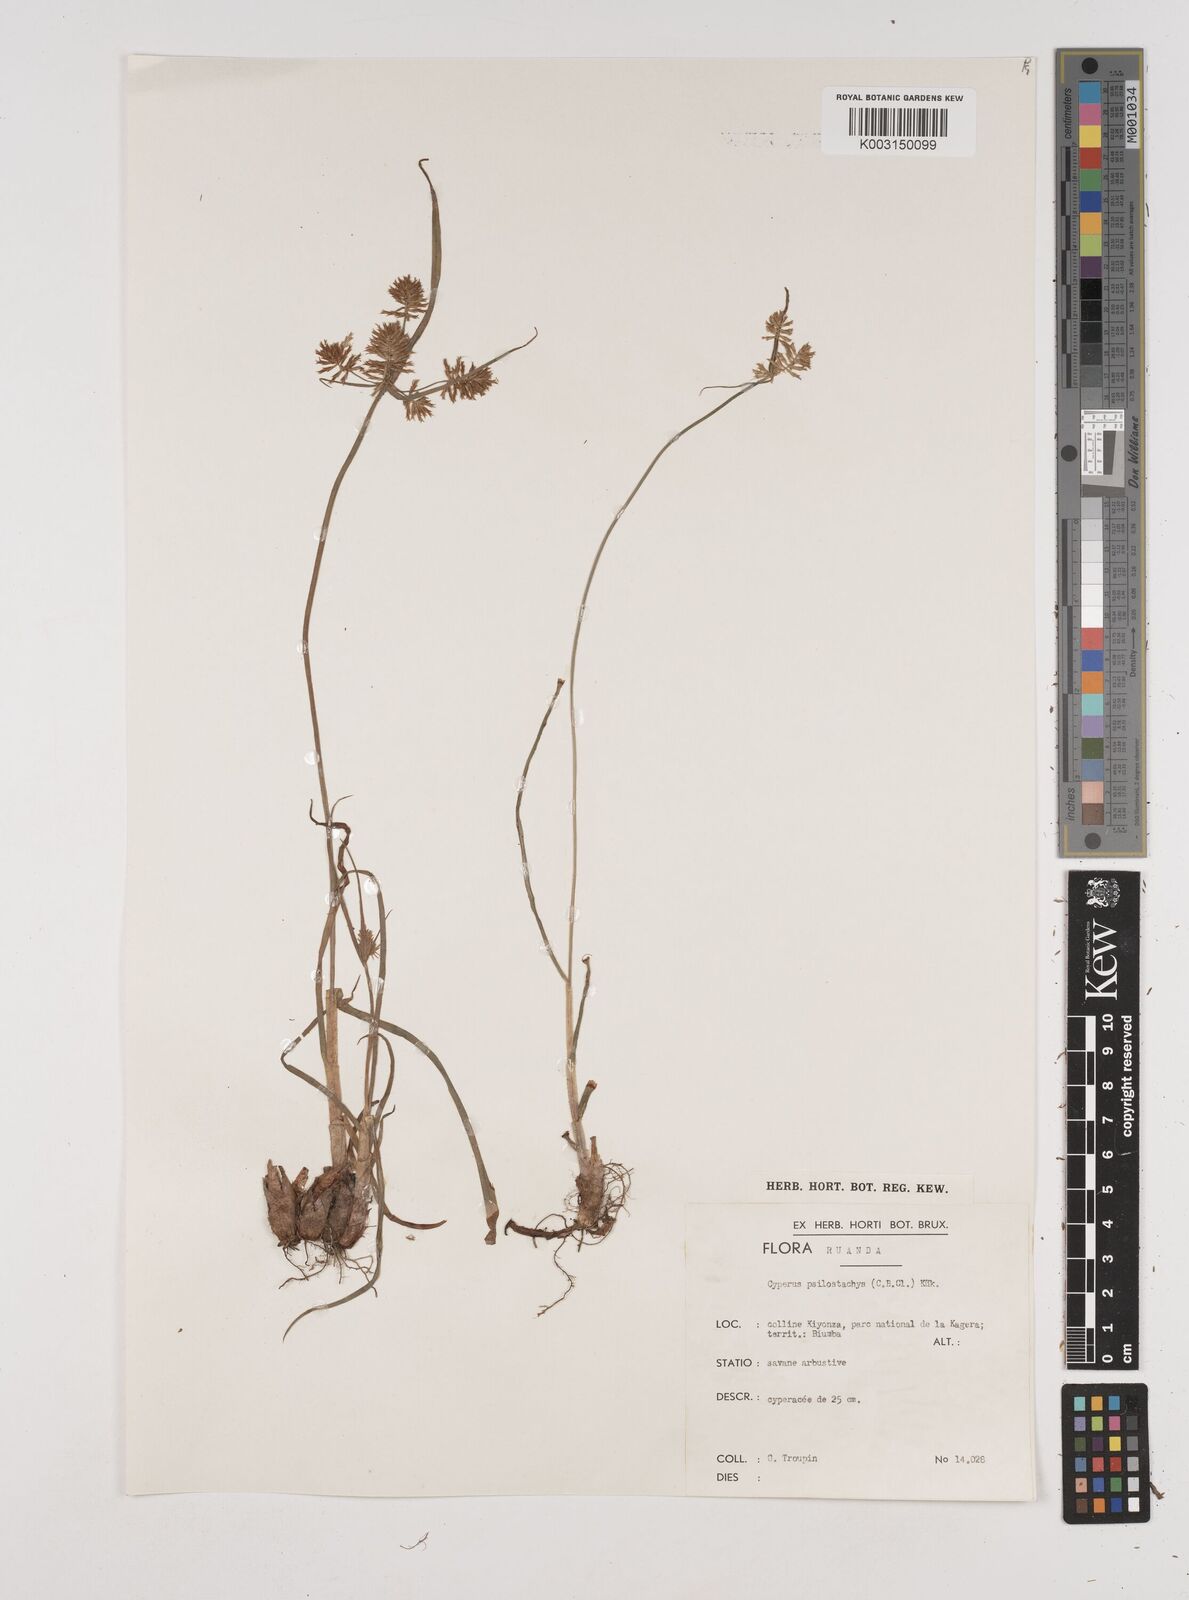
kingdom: Plantae
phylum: Tracheophyta
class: Liliopsida
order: Poales
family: Cyperaceae
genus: Cyperus
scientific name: Cyperus trigonellus
